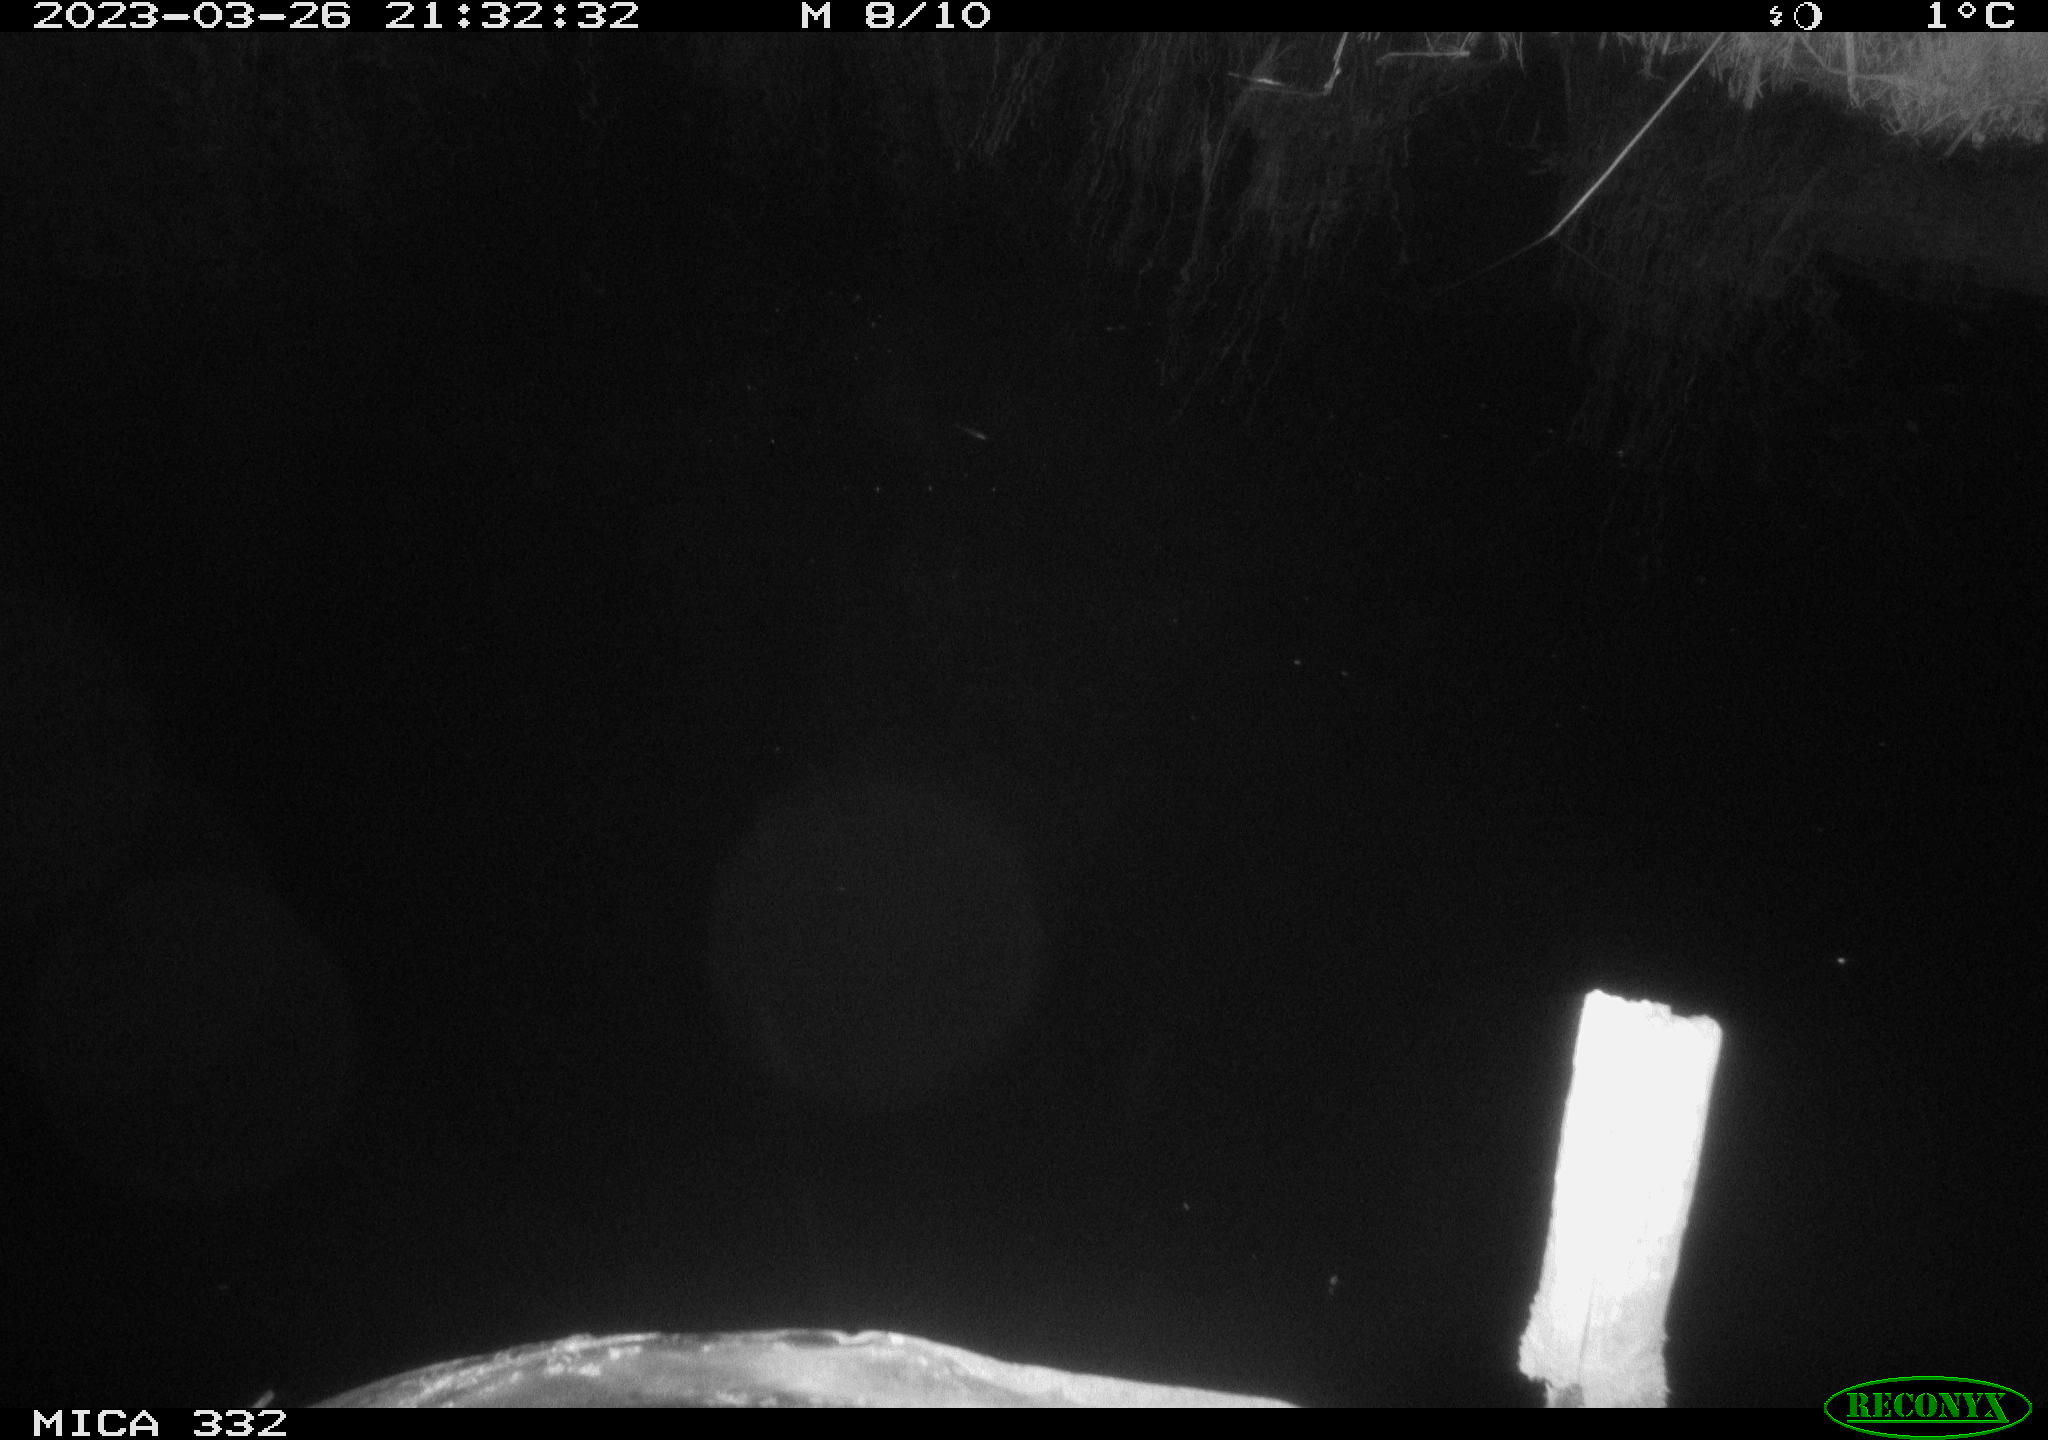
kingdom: Animalia
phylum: Chordata
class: Aves
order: Anseriformes
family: Anatidae
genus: Cygnus
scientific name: Cygnus olor
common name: Mute swan
